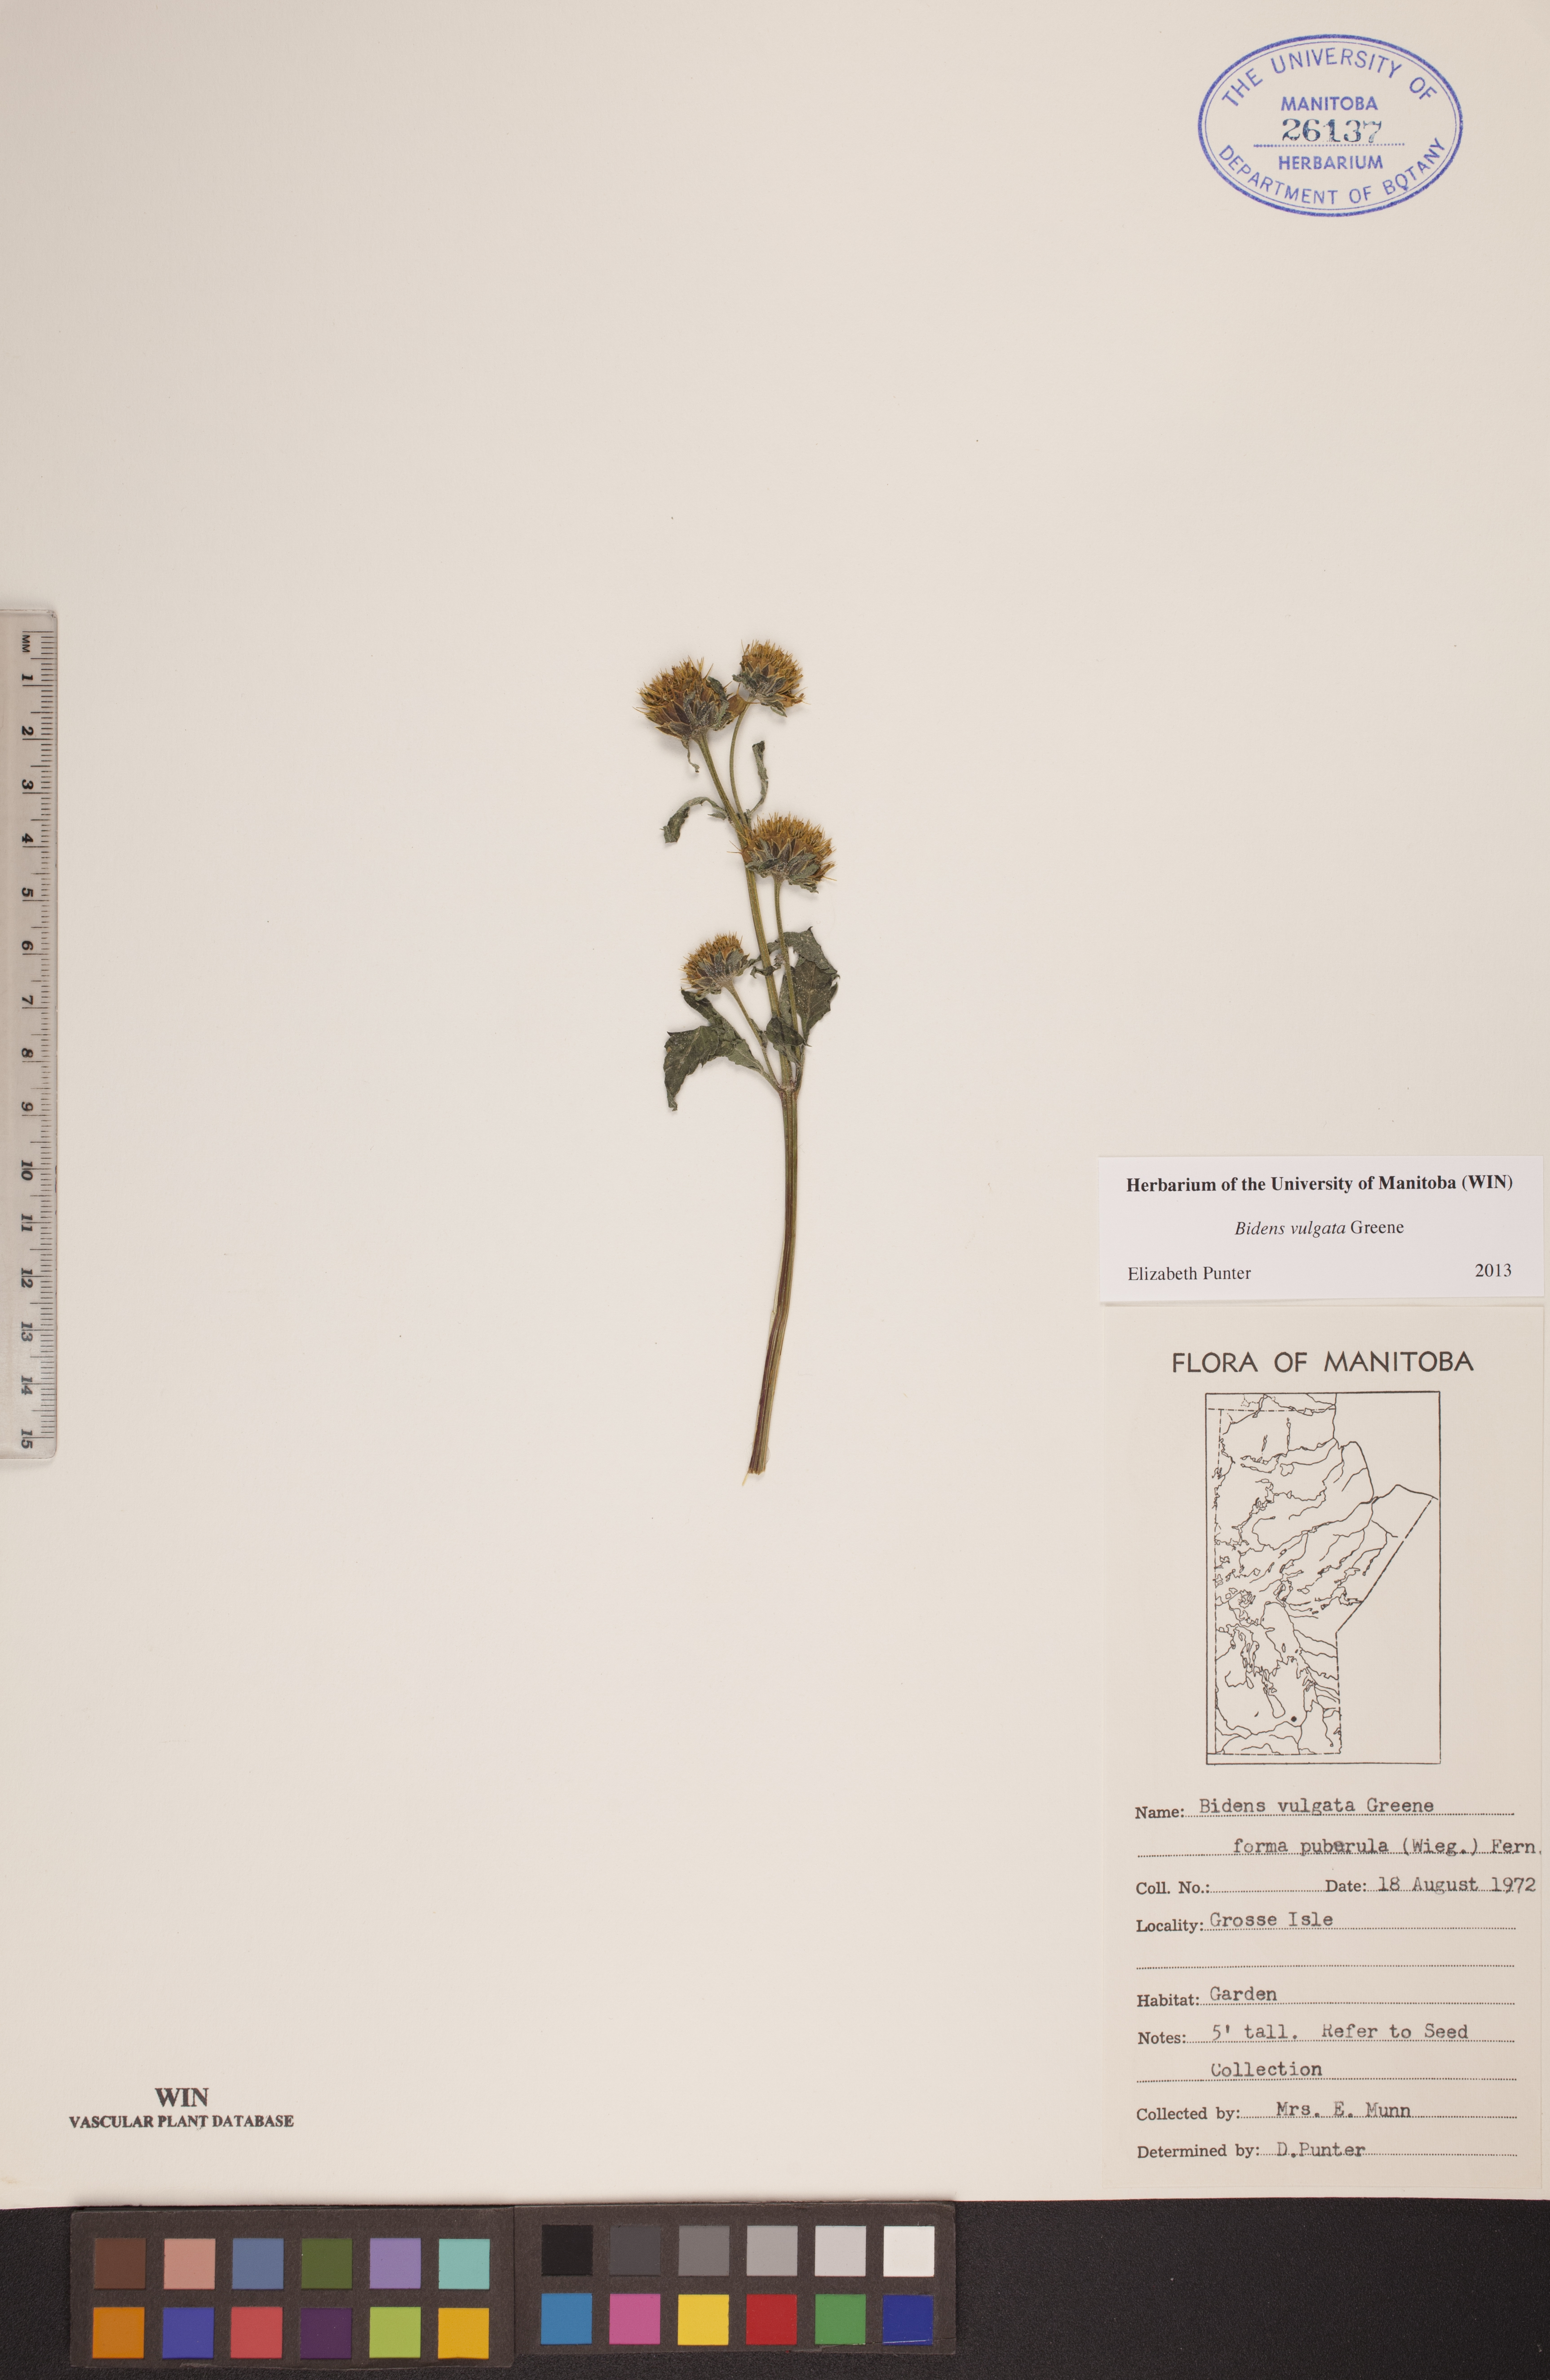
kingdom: Plantae
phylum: Tracheophyta
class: Magnoliopsida
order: Asterales
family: Asteraceae
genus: Bidens
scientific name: Bidens vulgata
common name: Tall beggarticks
